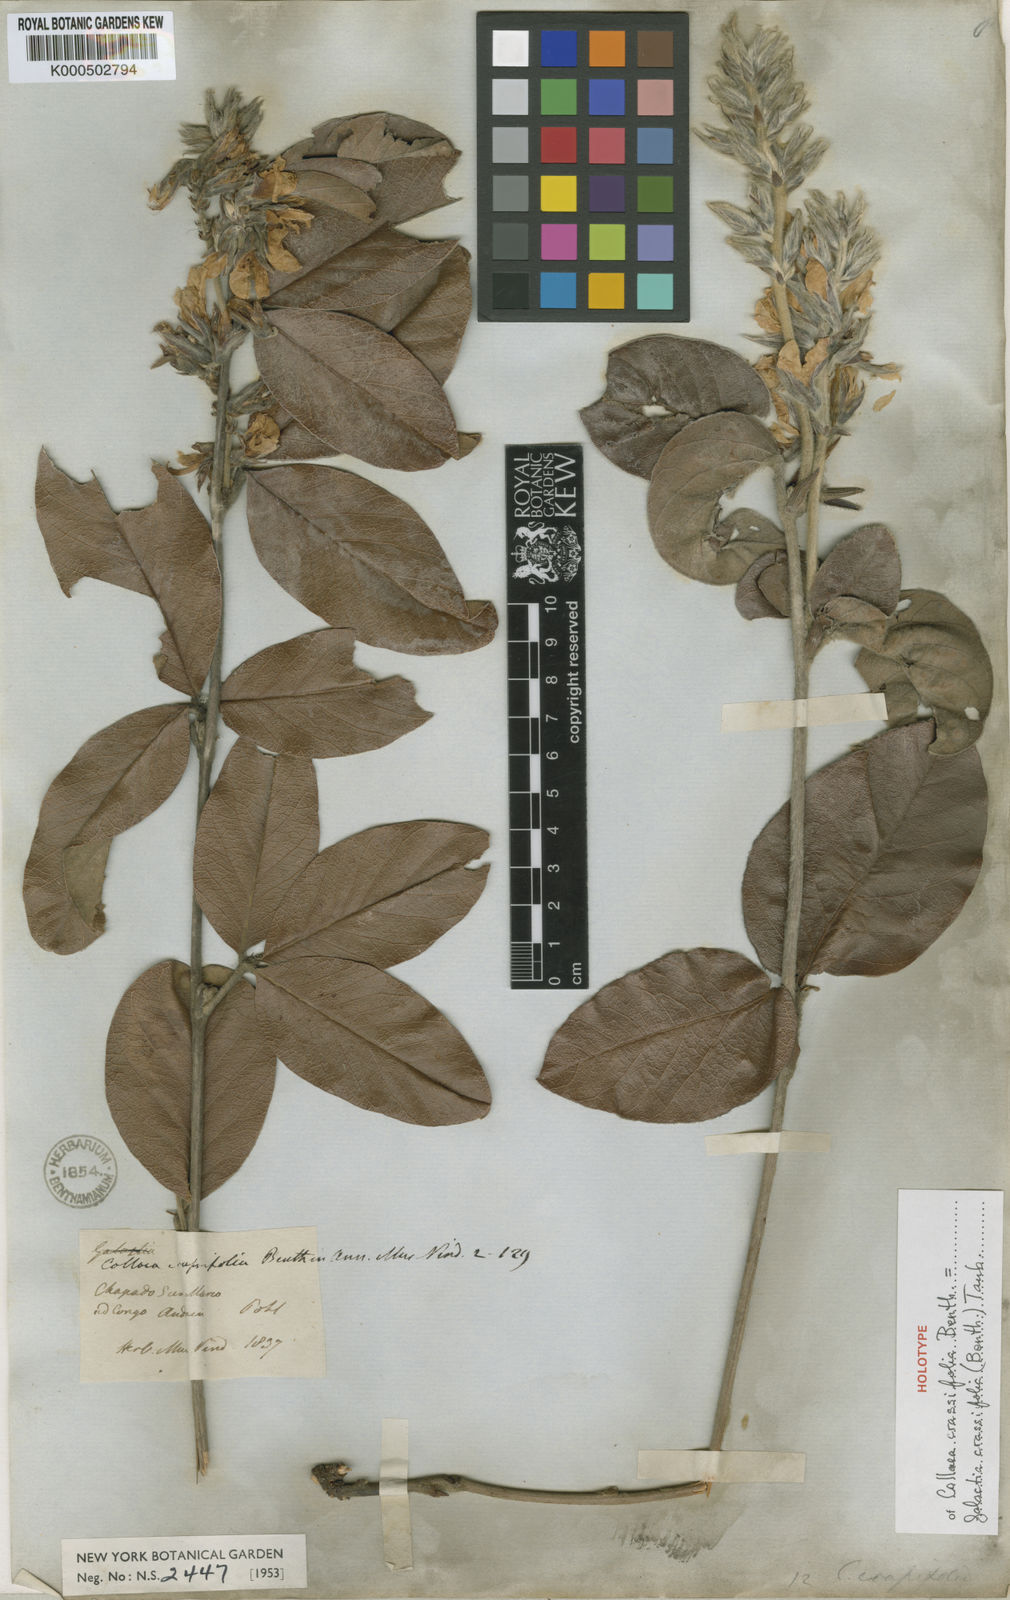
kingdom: Plantae
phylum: Tracheophyta
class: Magnoliopsida
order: Fabales
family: Fabaceae
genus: Betencourtia
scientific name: Betencourtia crassifolia
